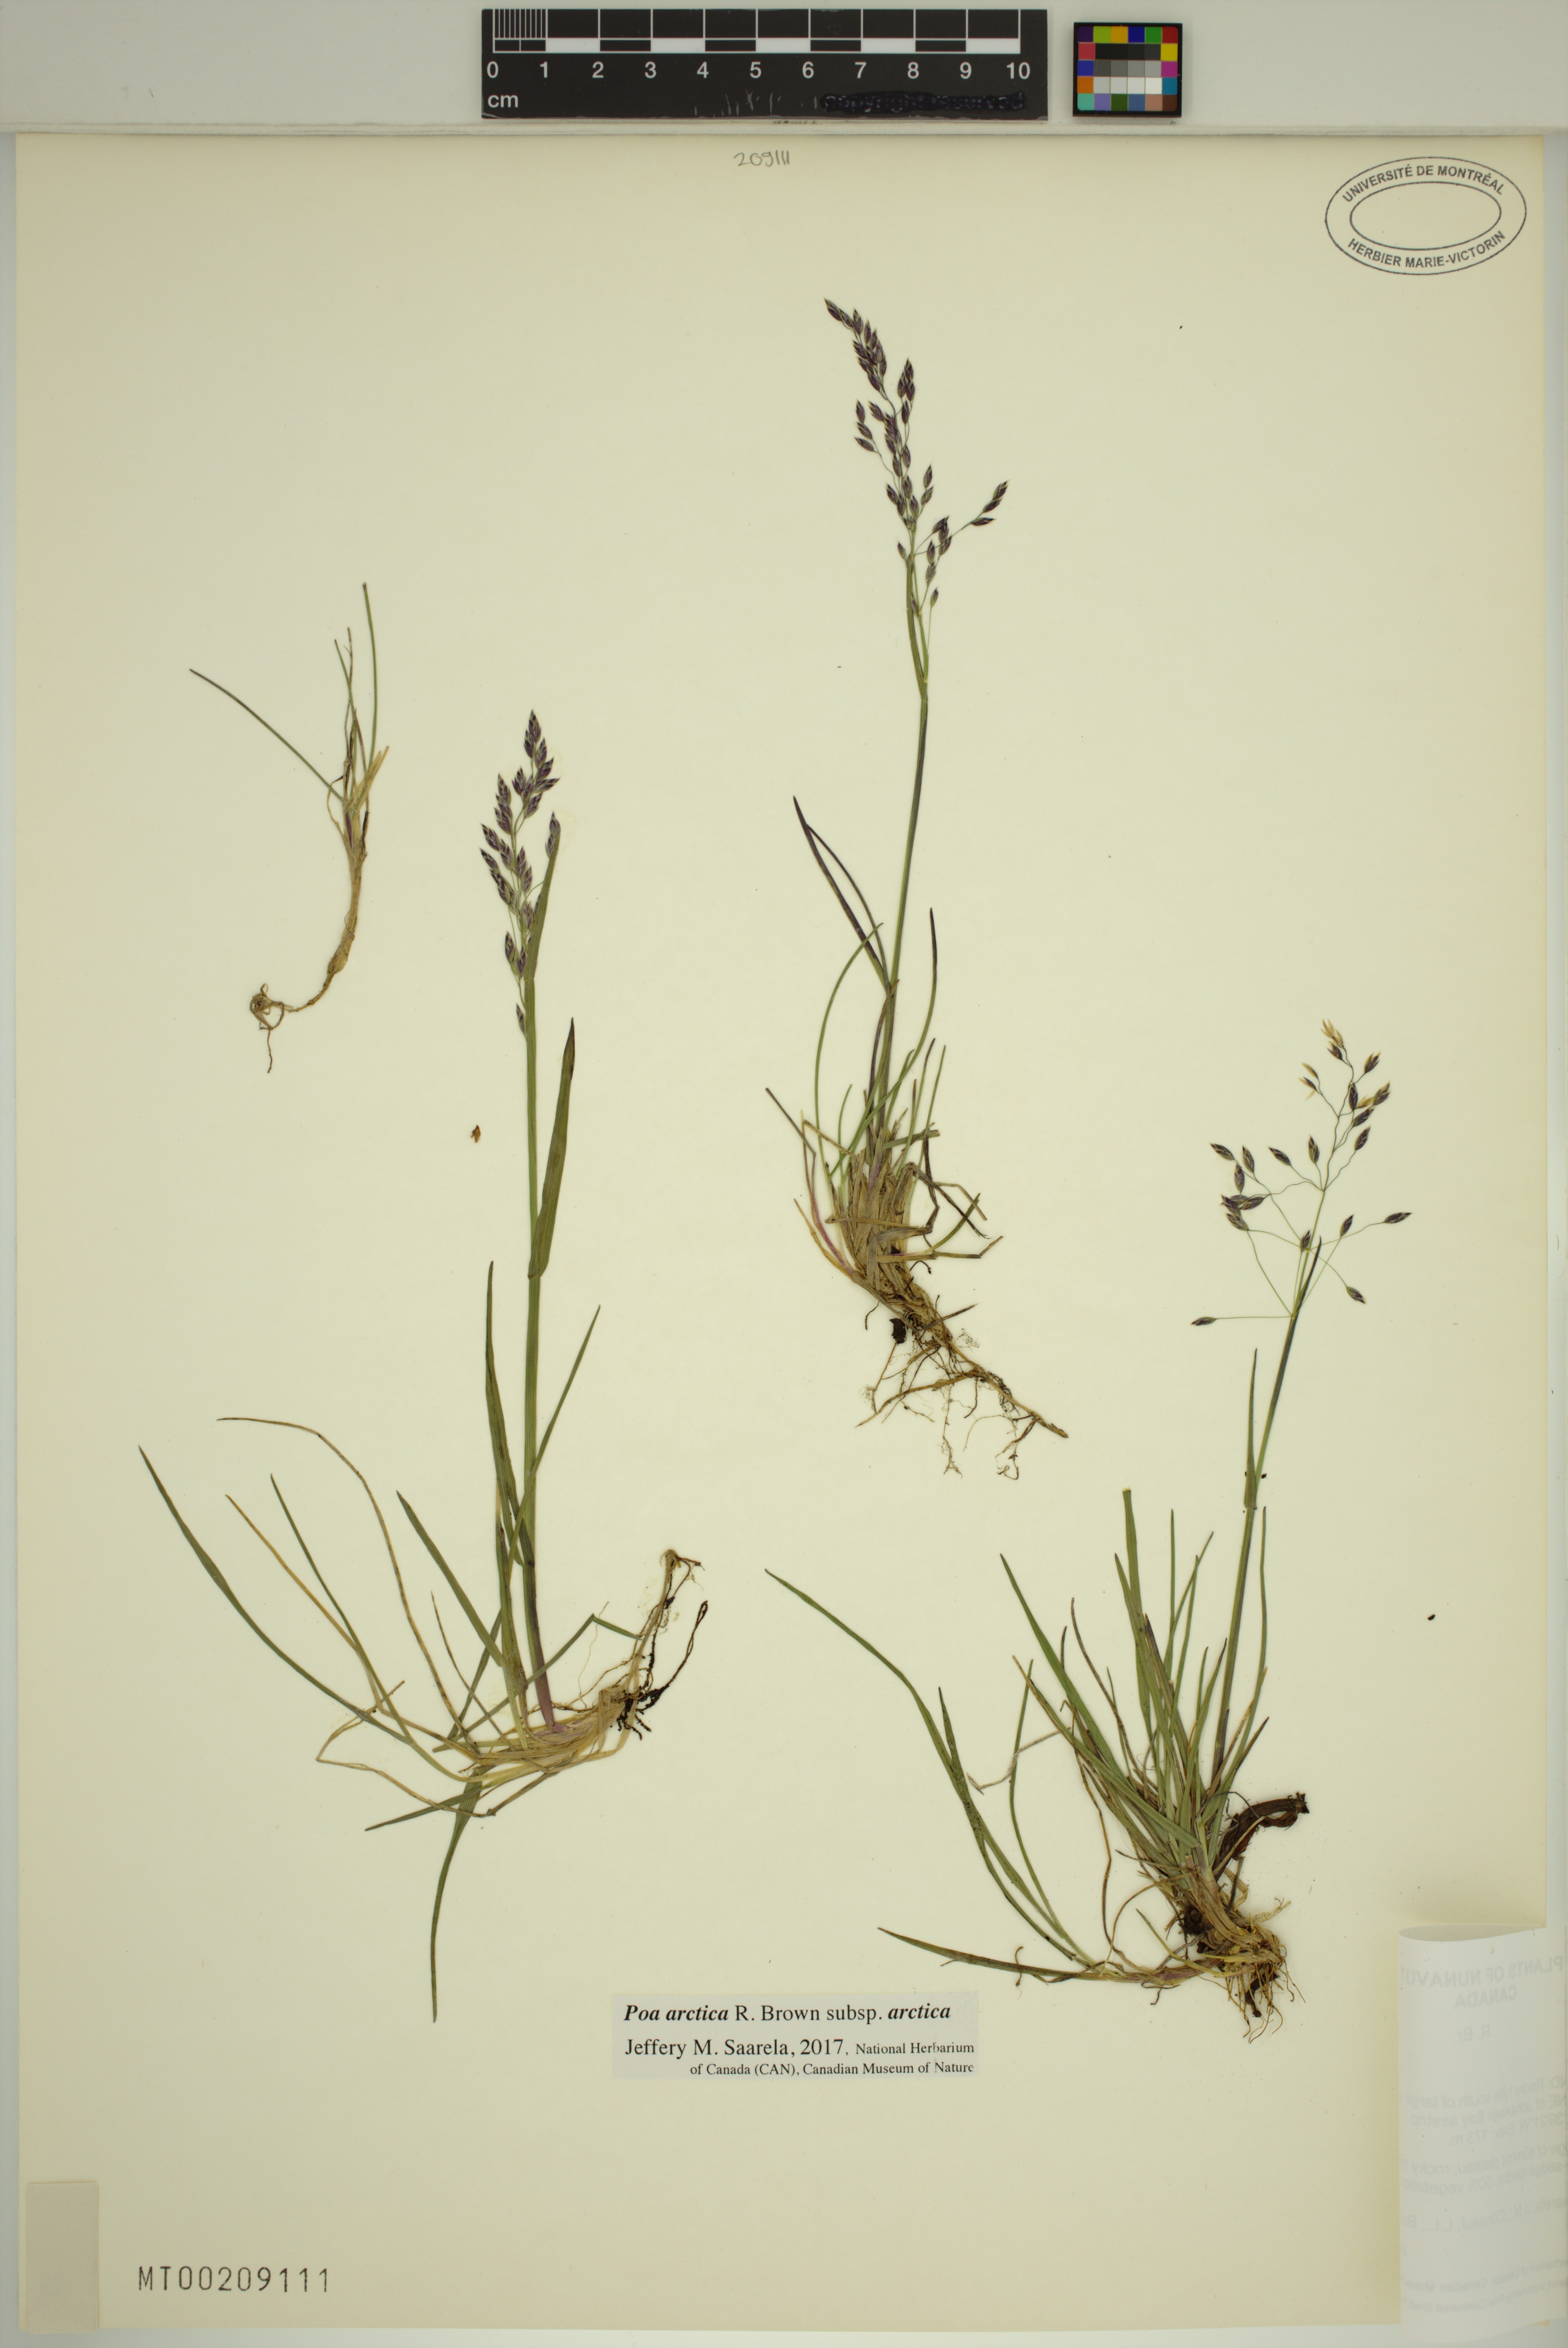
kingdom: Plantae
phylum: Tracheophyta
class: Liliopsida
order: Poales
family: Poaceae
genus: Poa
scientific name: Poa arctica
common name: Arctic bluegrass
